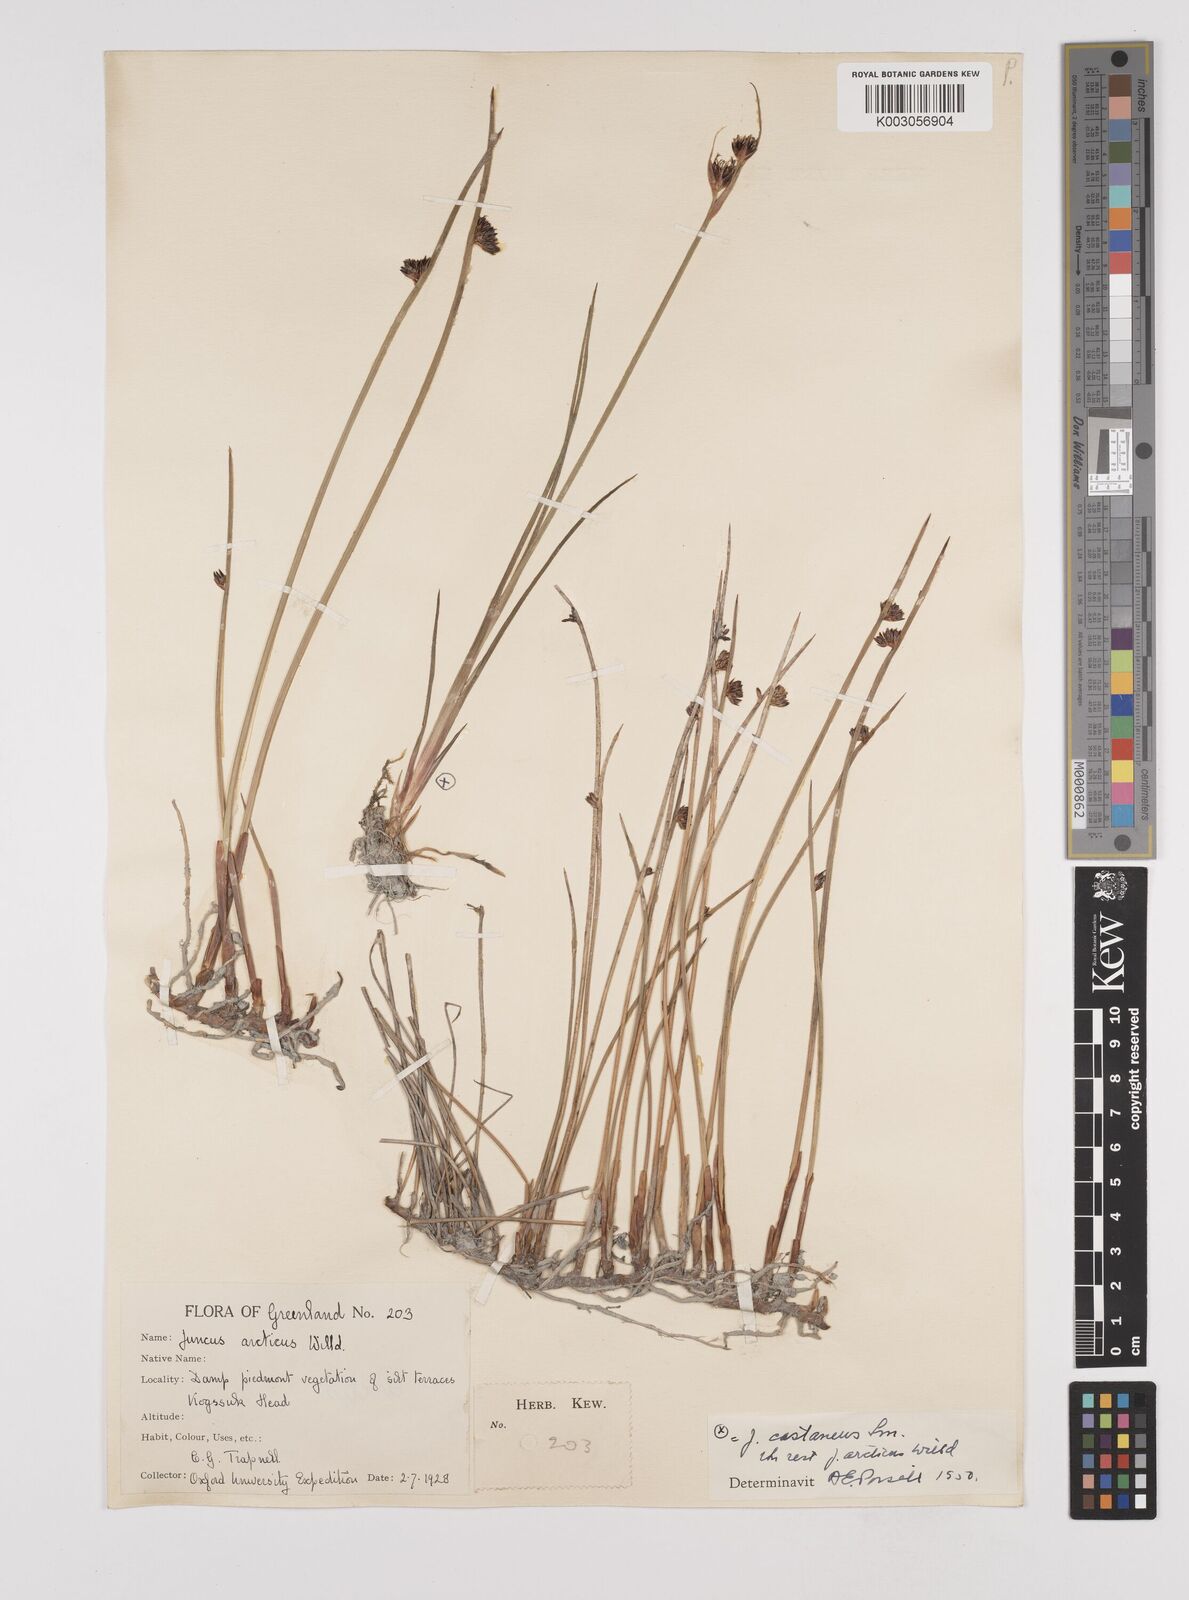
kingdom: Plantae
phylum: Tracheophyta
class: Liliopsida
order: Poales
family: Juncaceae
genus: Juncus
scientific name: Juncus arcticus
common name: Arctic rush
